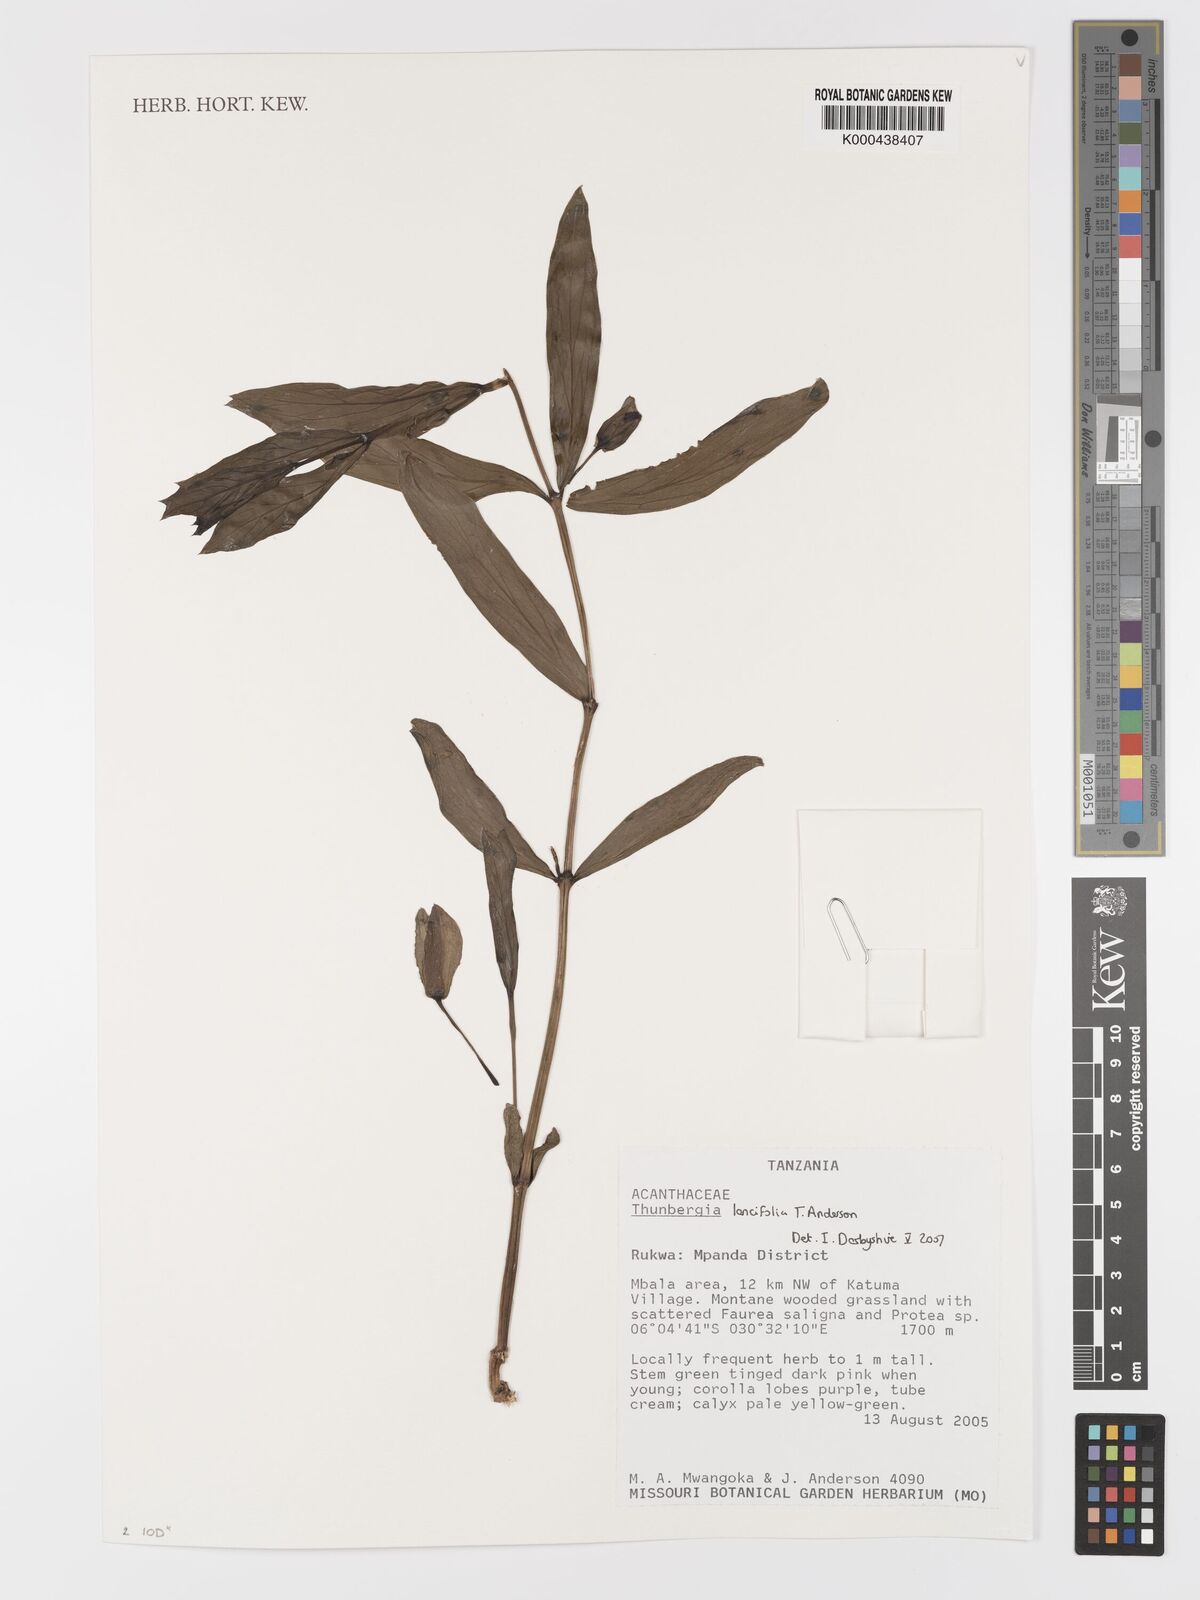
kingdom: Plantae
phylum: Tracheophyta
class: Magnoliopsida
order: Lamiales
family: Acanthaceae
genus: Thunbergia
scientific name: Thunbergia lancifolia
